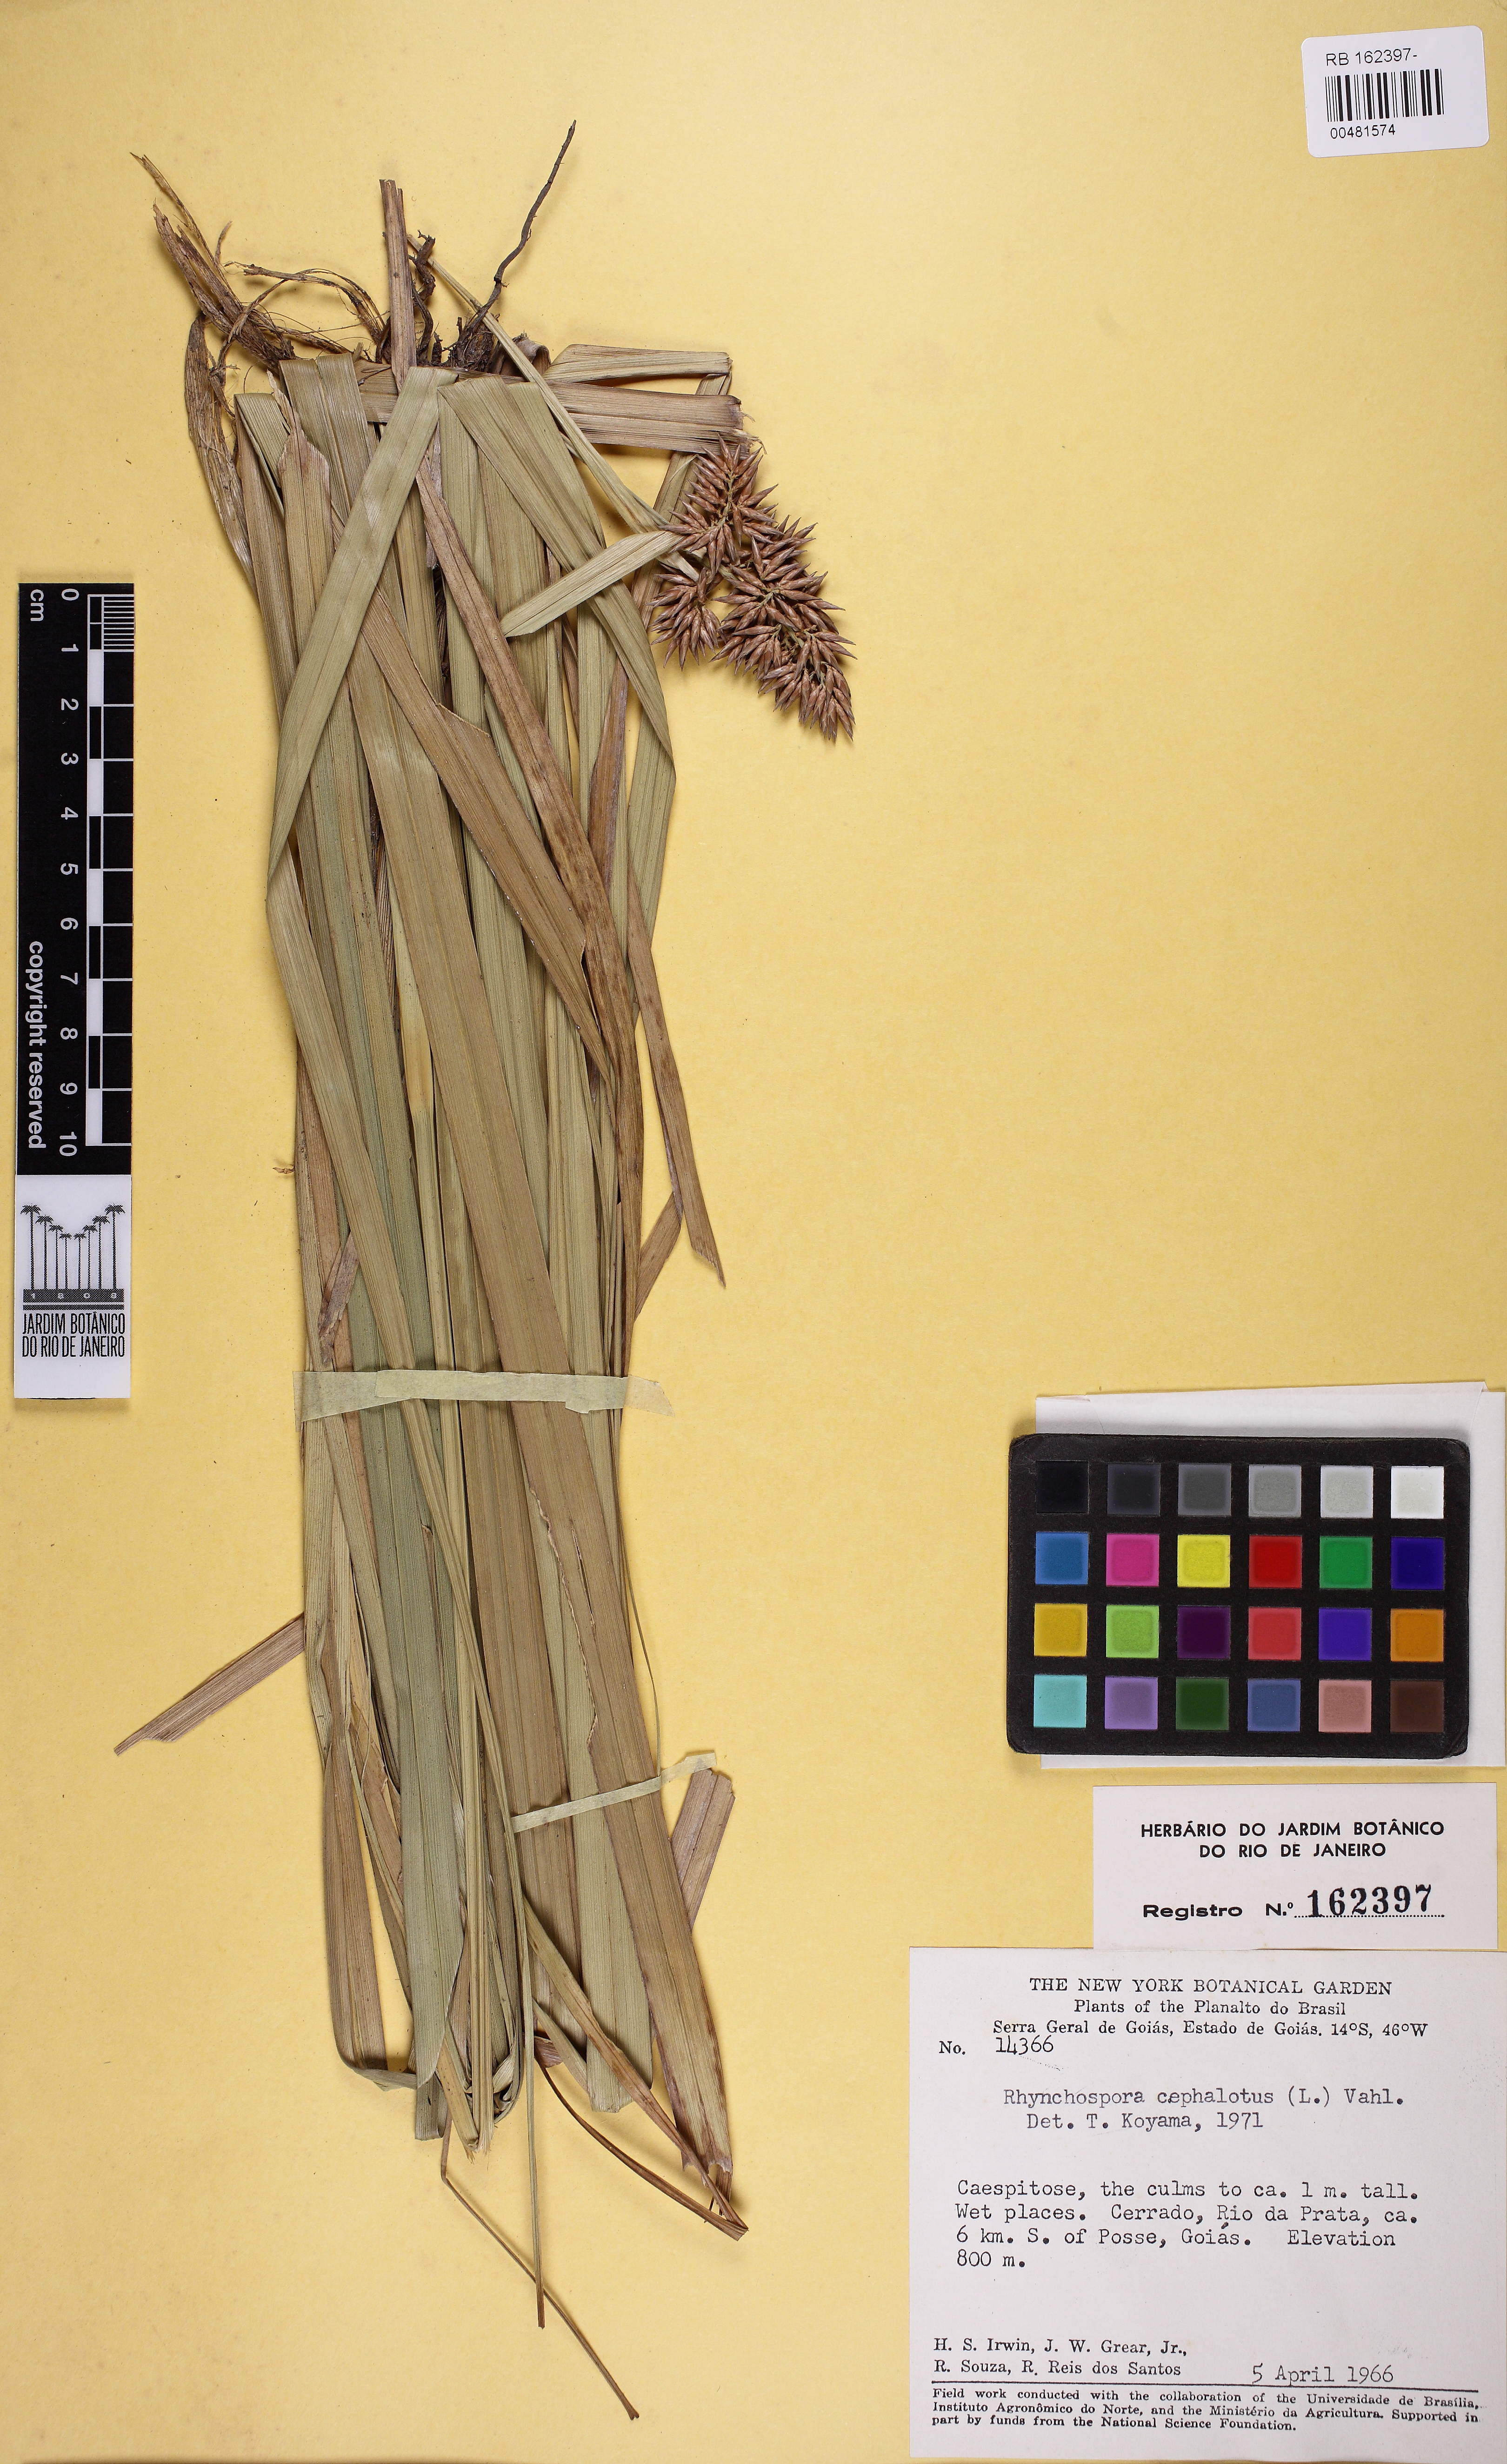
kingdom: Plantae
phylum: Tracheophyta
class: Liliopsida
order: Poales
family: Cyperaceae
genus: Rhynchospora
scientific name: Rhynchospora cephalotes
